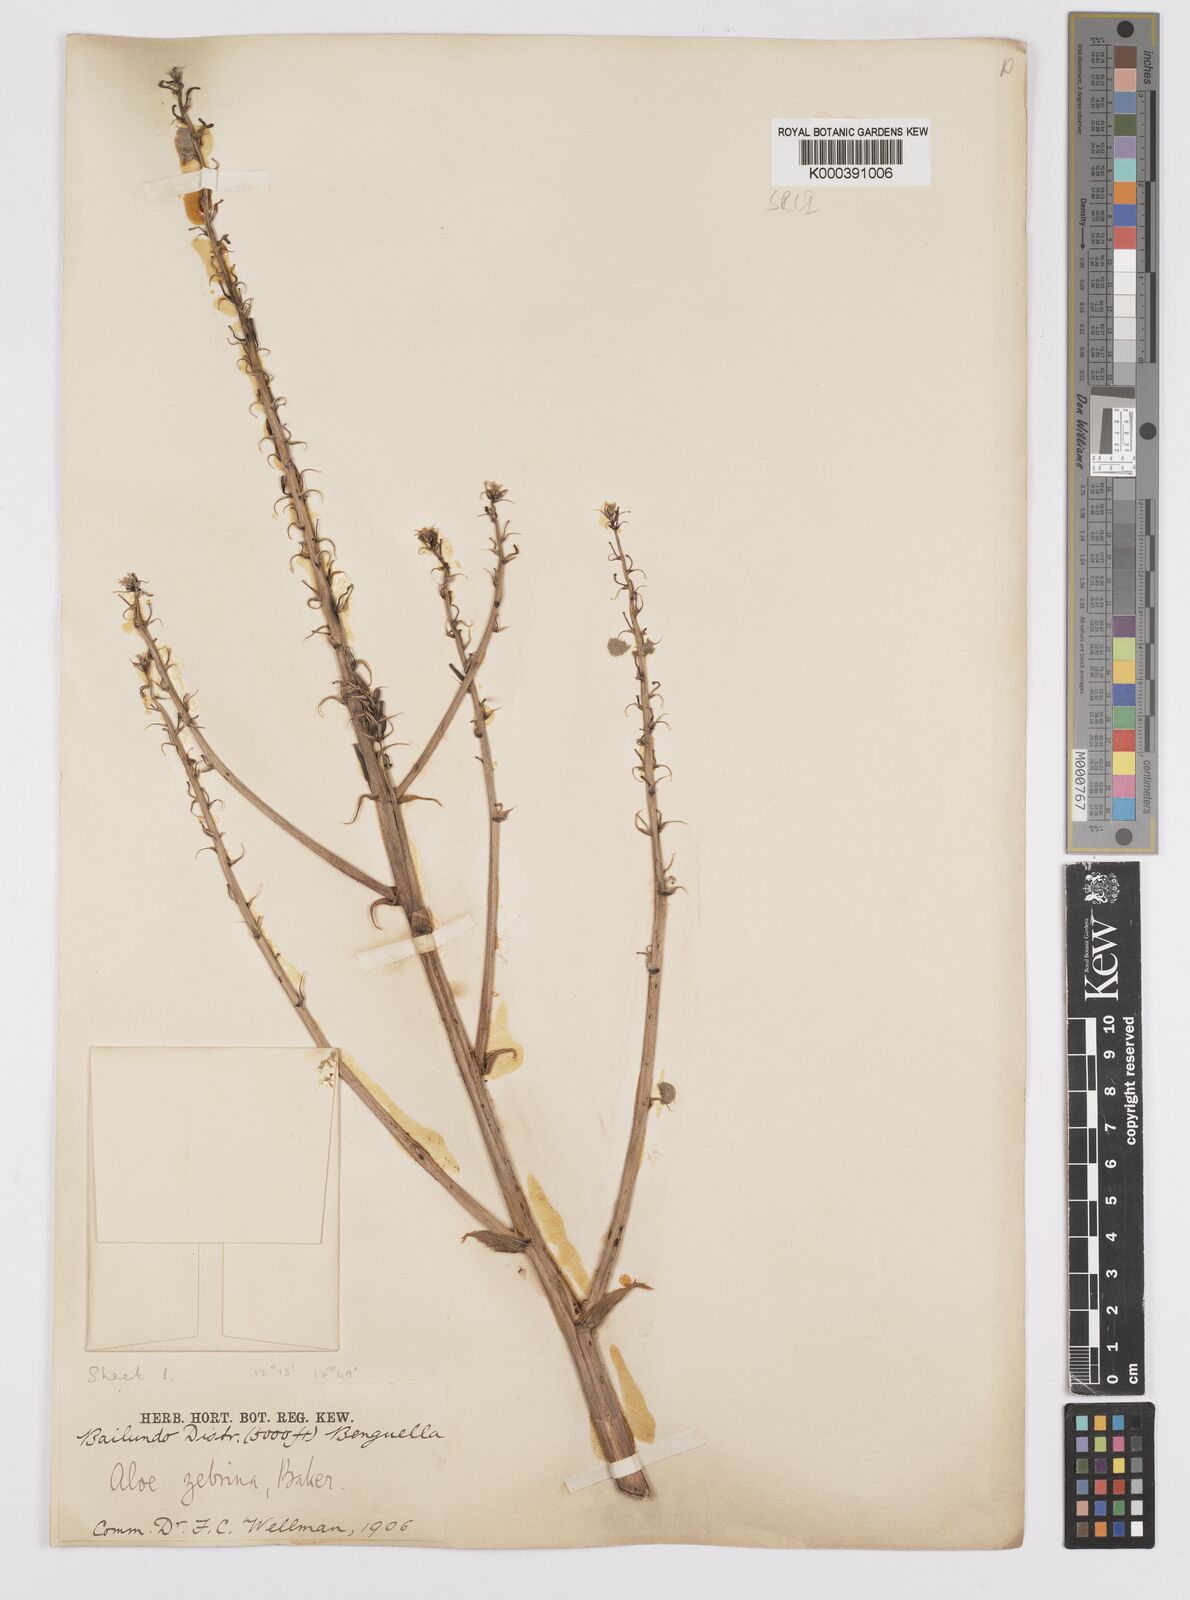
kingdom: Plantae
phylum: Tracheophyta
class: Liliopsida
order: Asparagales
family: Asphodelaceae
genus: Aloe
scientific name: Aloe zebrina
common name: Zebra-leaf aloe
